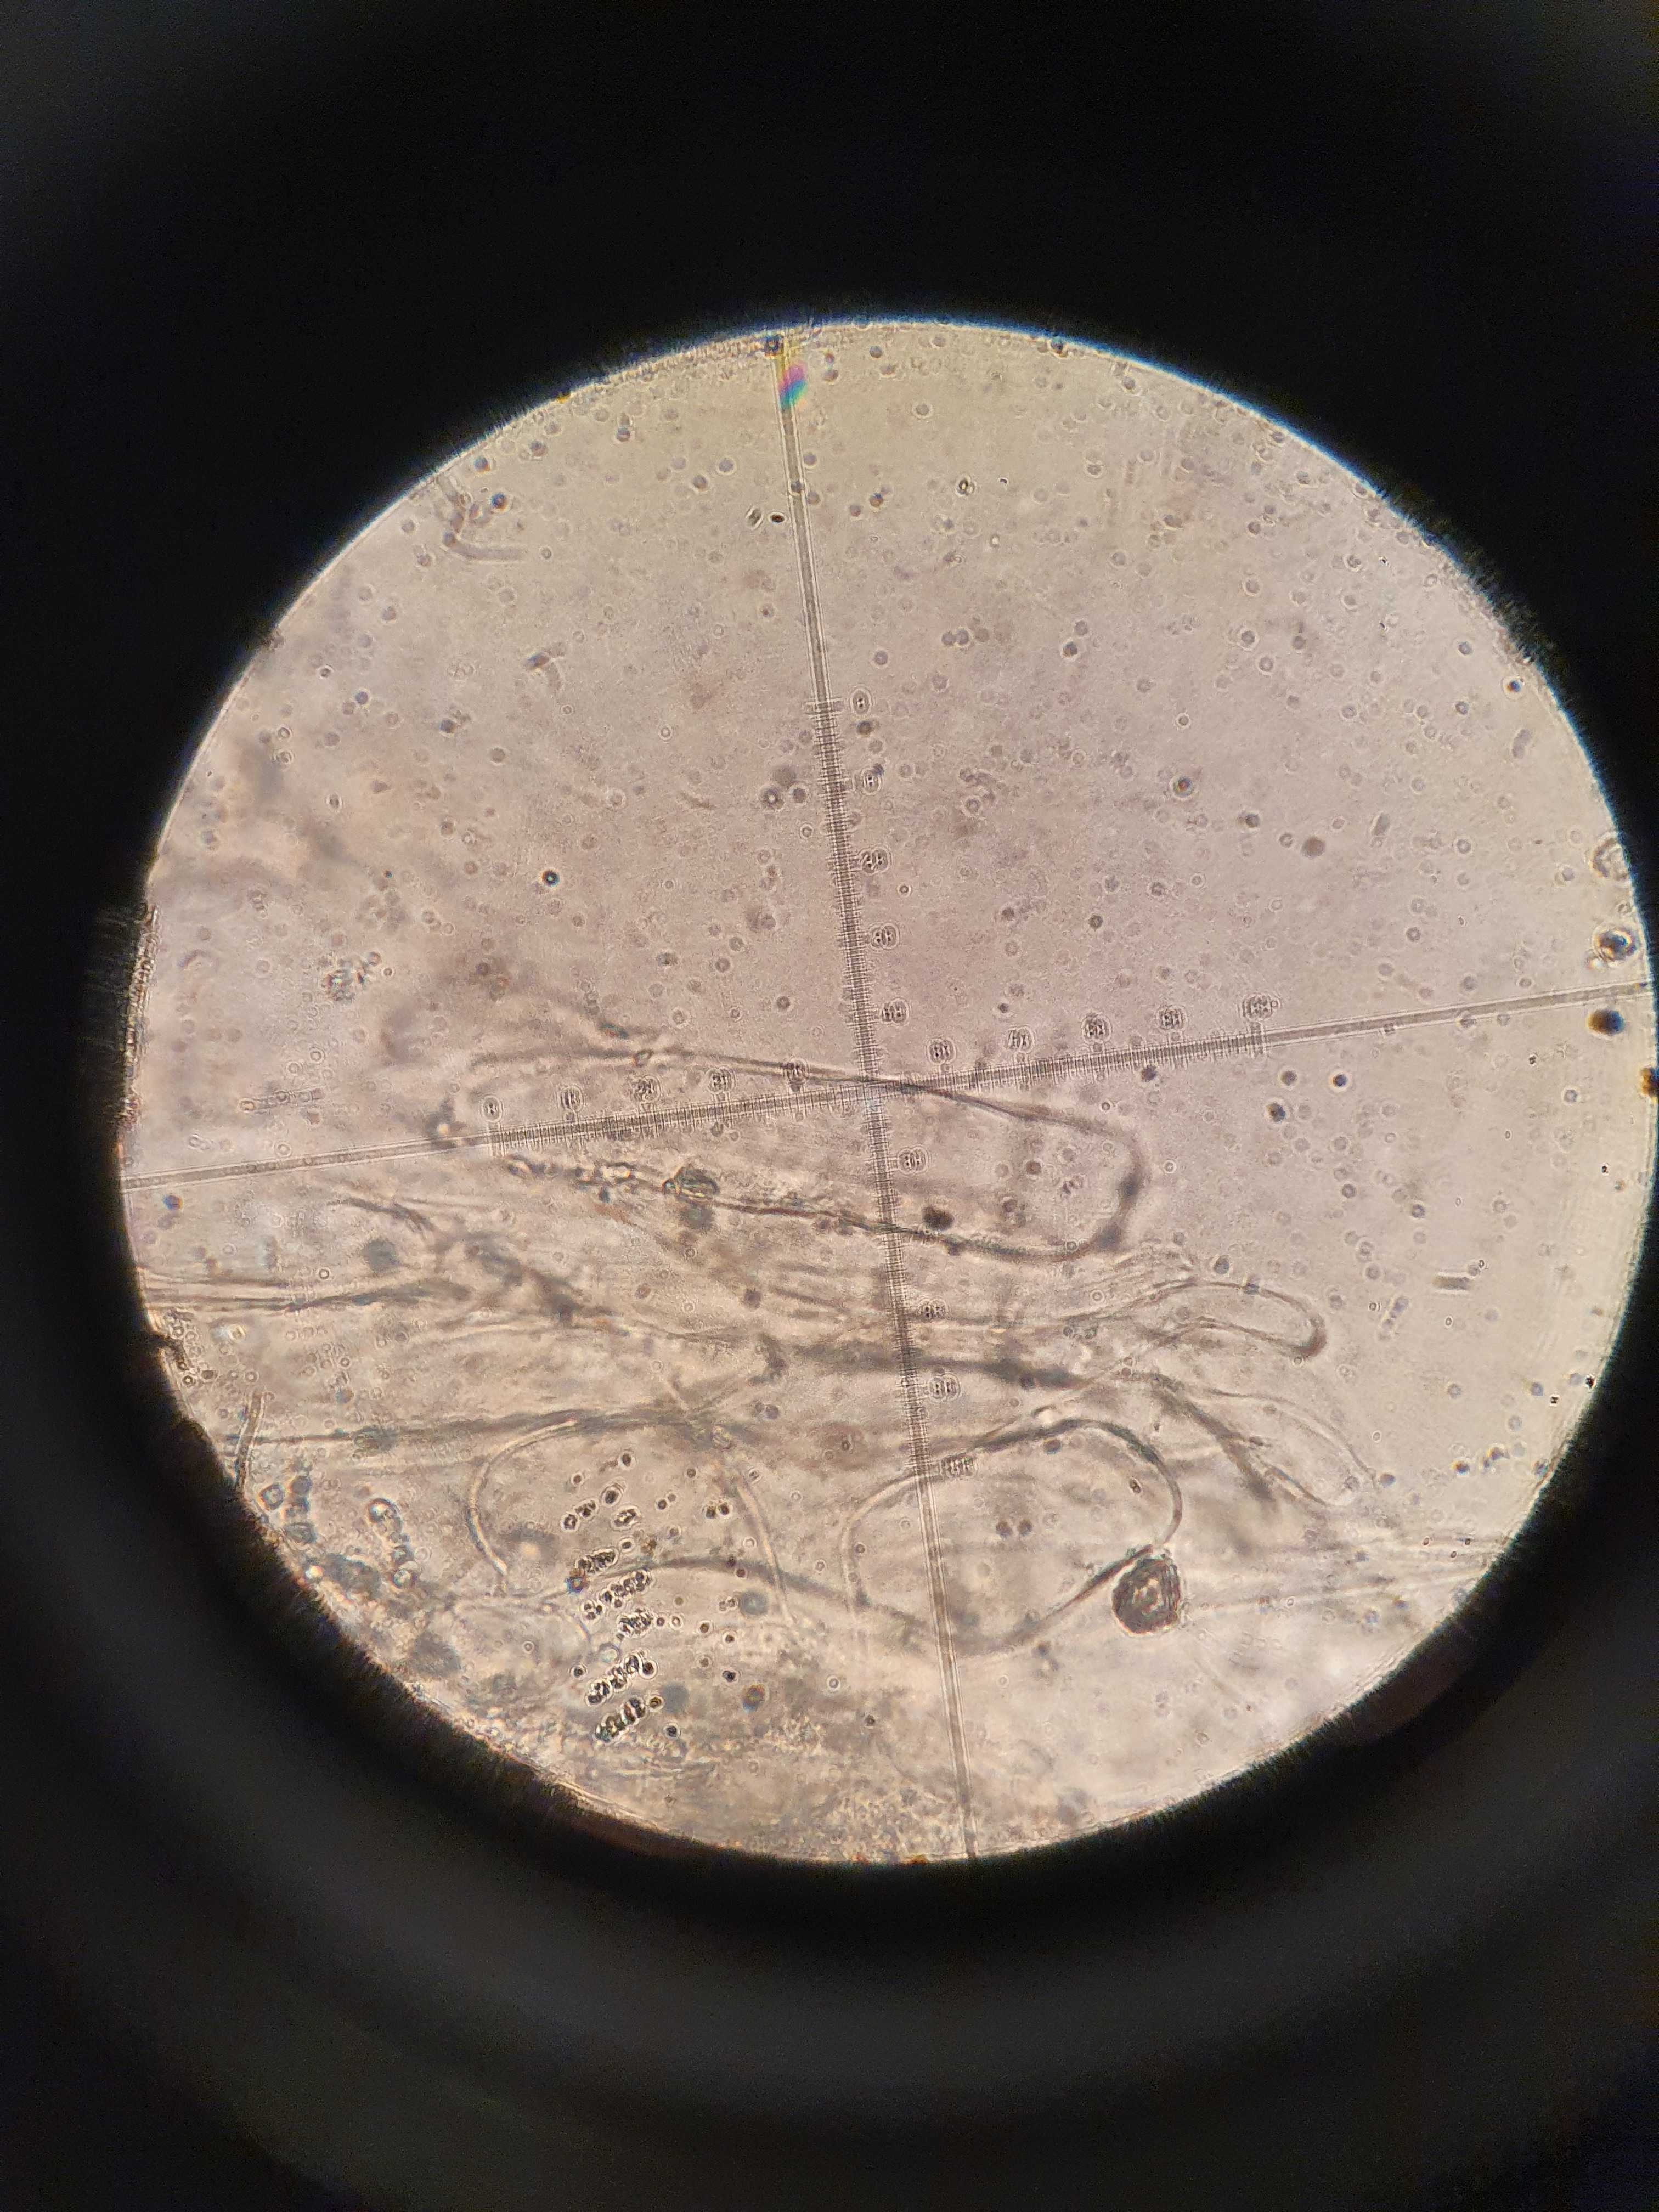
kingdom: Fungi
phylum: Basidiomycota
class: Agaricomycetes
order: Agaricales
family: Mycenaceae
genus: Mycena
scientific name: Mycena polygramma
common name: mangestribet huesvamp
